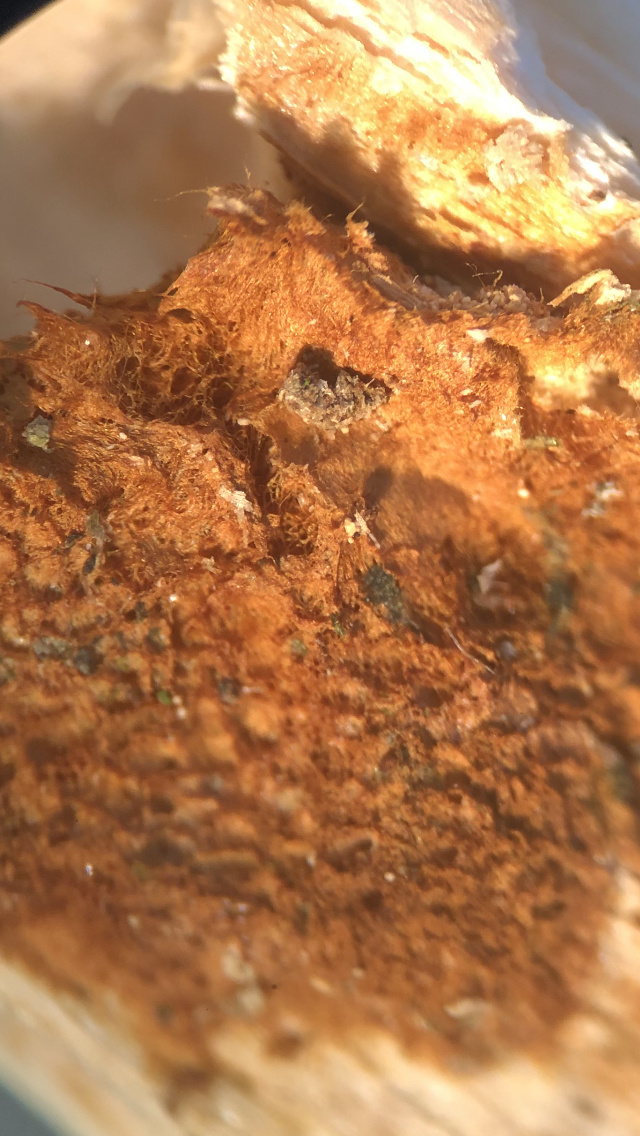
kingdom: Fungi
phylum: Basidiomycota
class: Agaricomycetes
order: Hymenochaetales
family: Hymenochaetaceae
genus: Fuscoporia
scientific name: Fuscoporia ferrea
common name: skorpe-ildporesvamp
